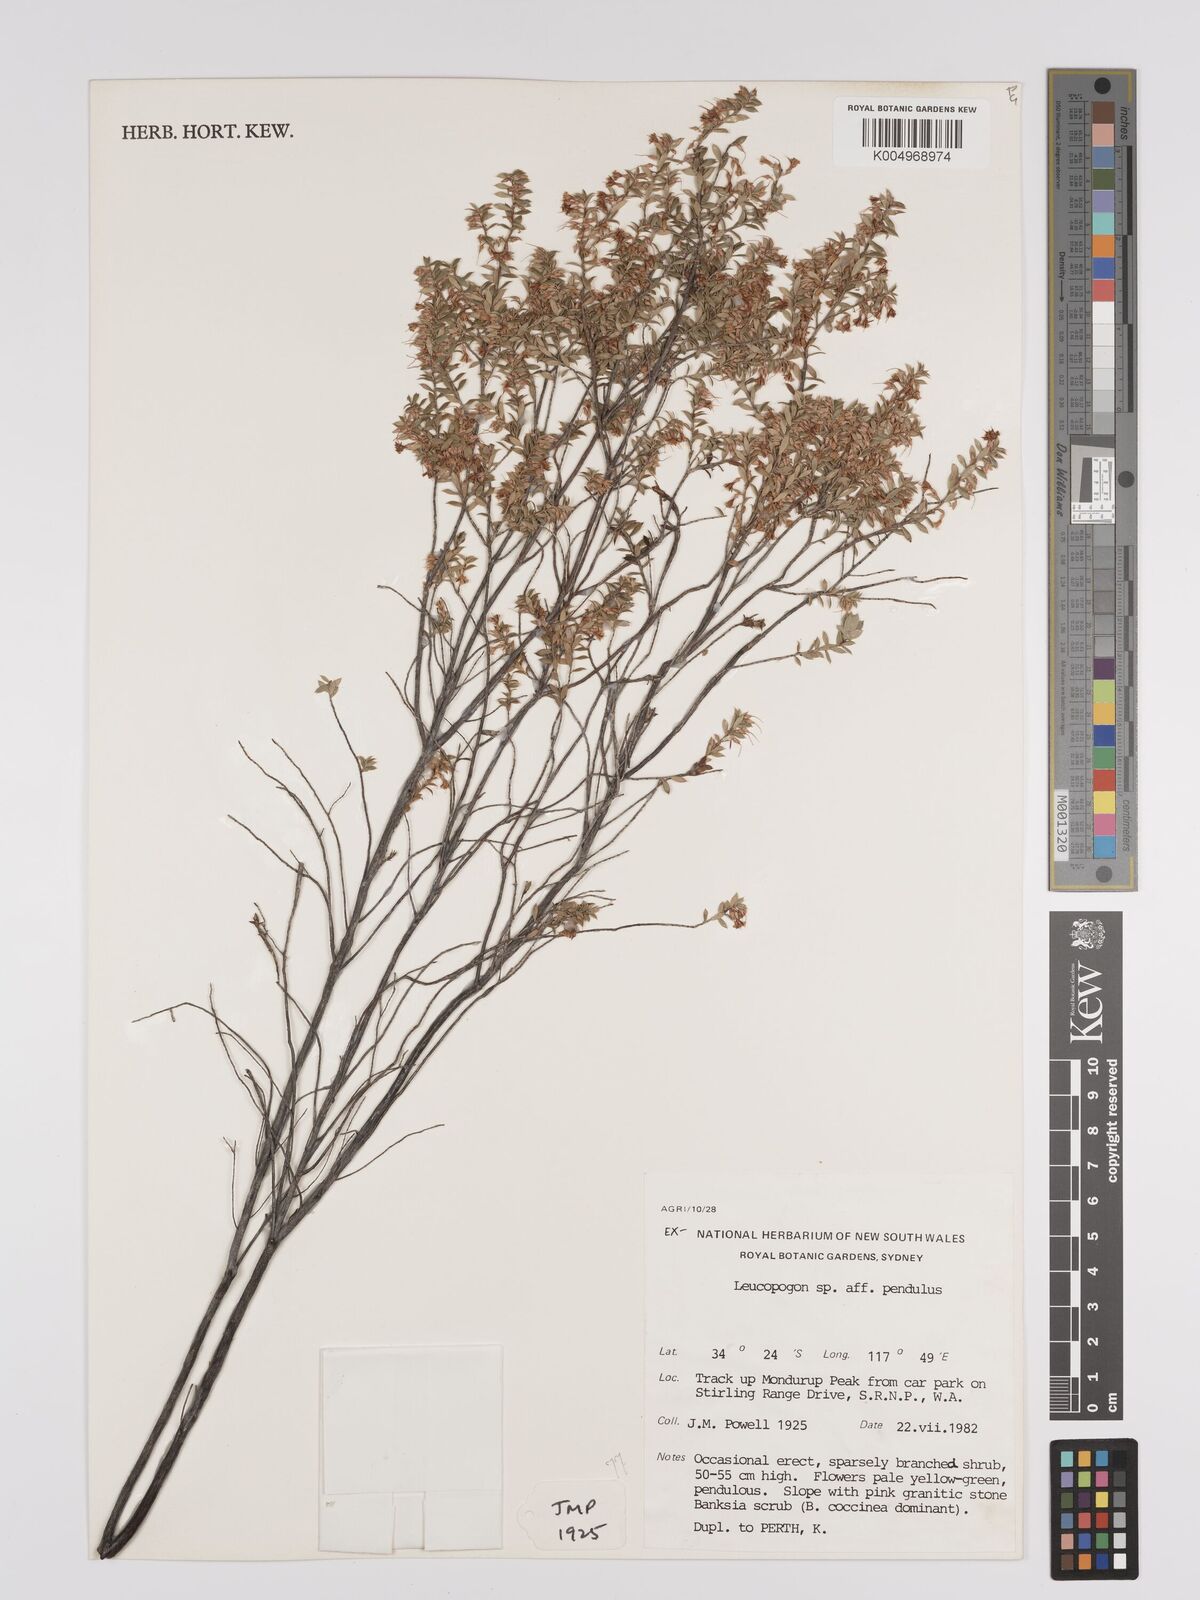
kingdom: Plantae
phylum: Tracheophyta
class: Magnoliopsida
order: Ericales
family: Ericaceae
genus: Styphelia
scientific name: Styphelia pendula
